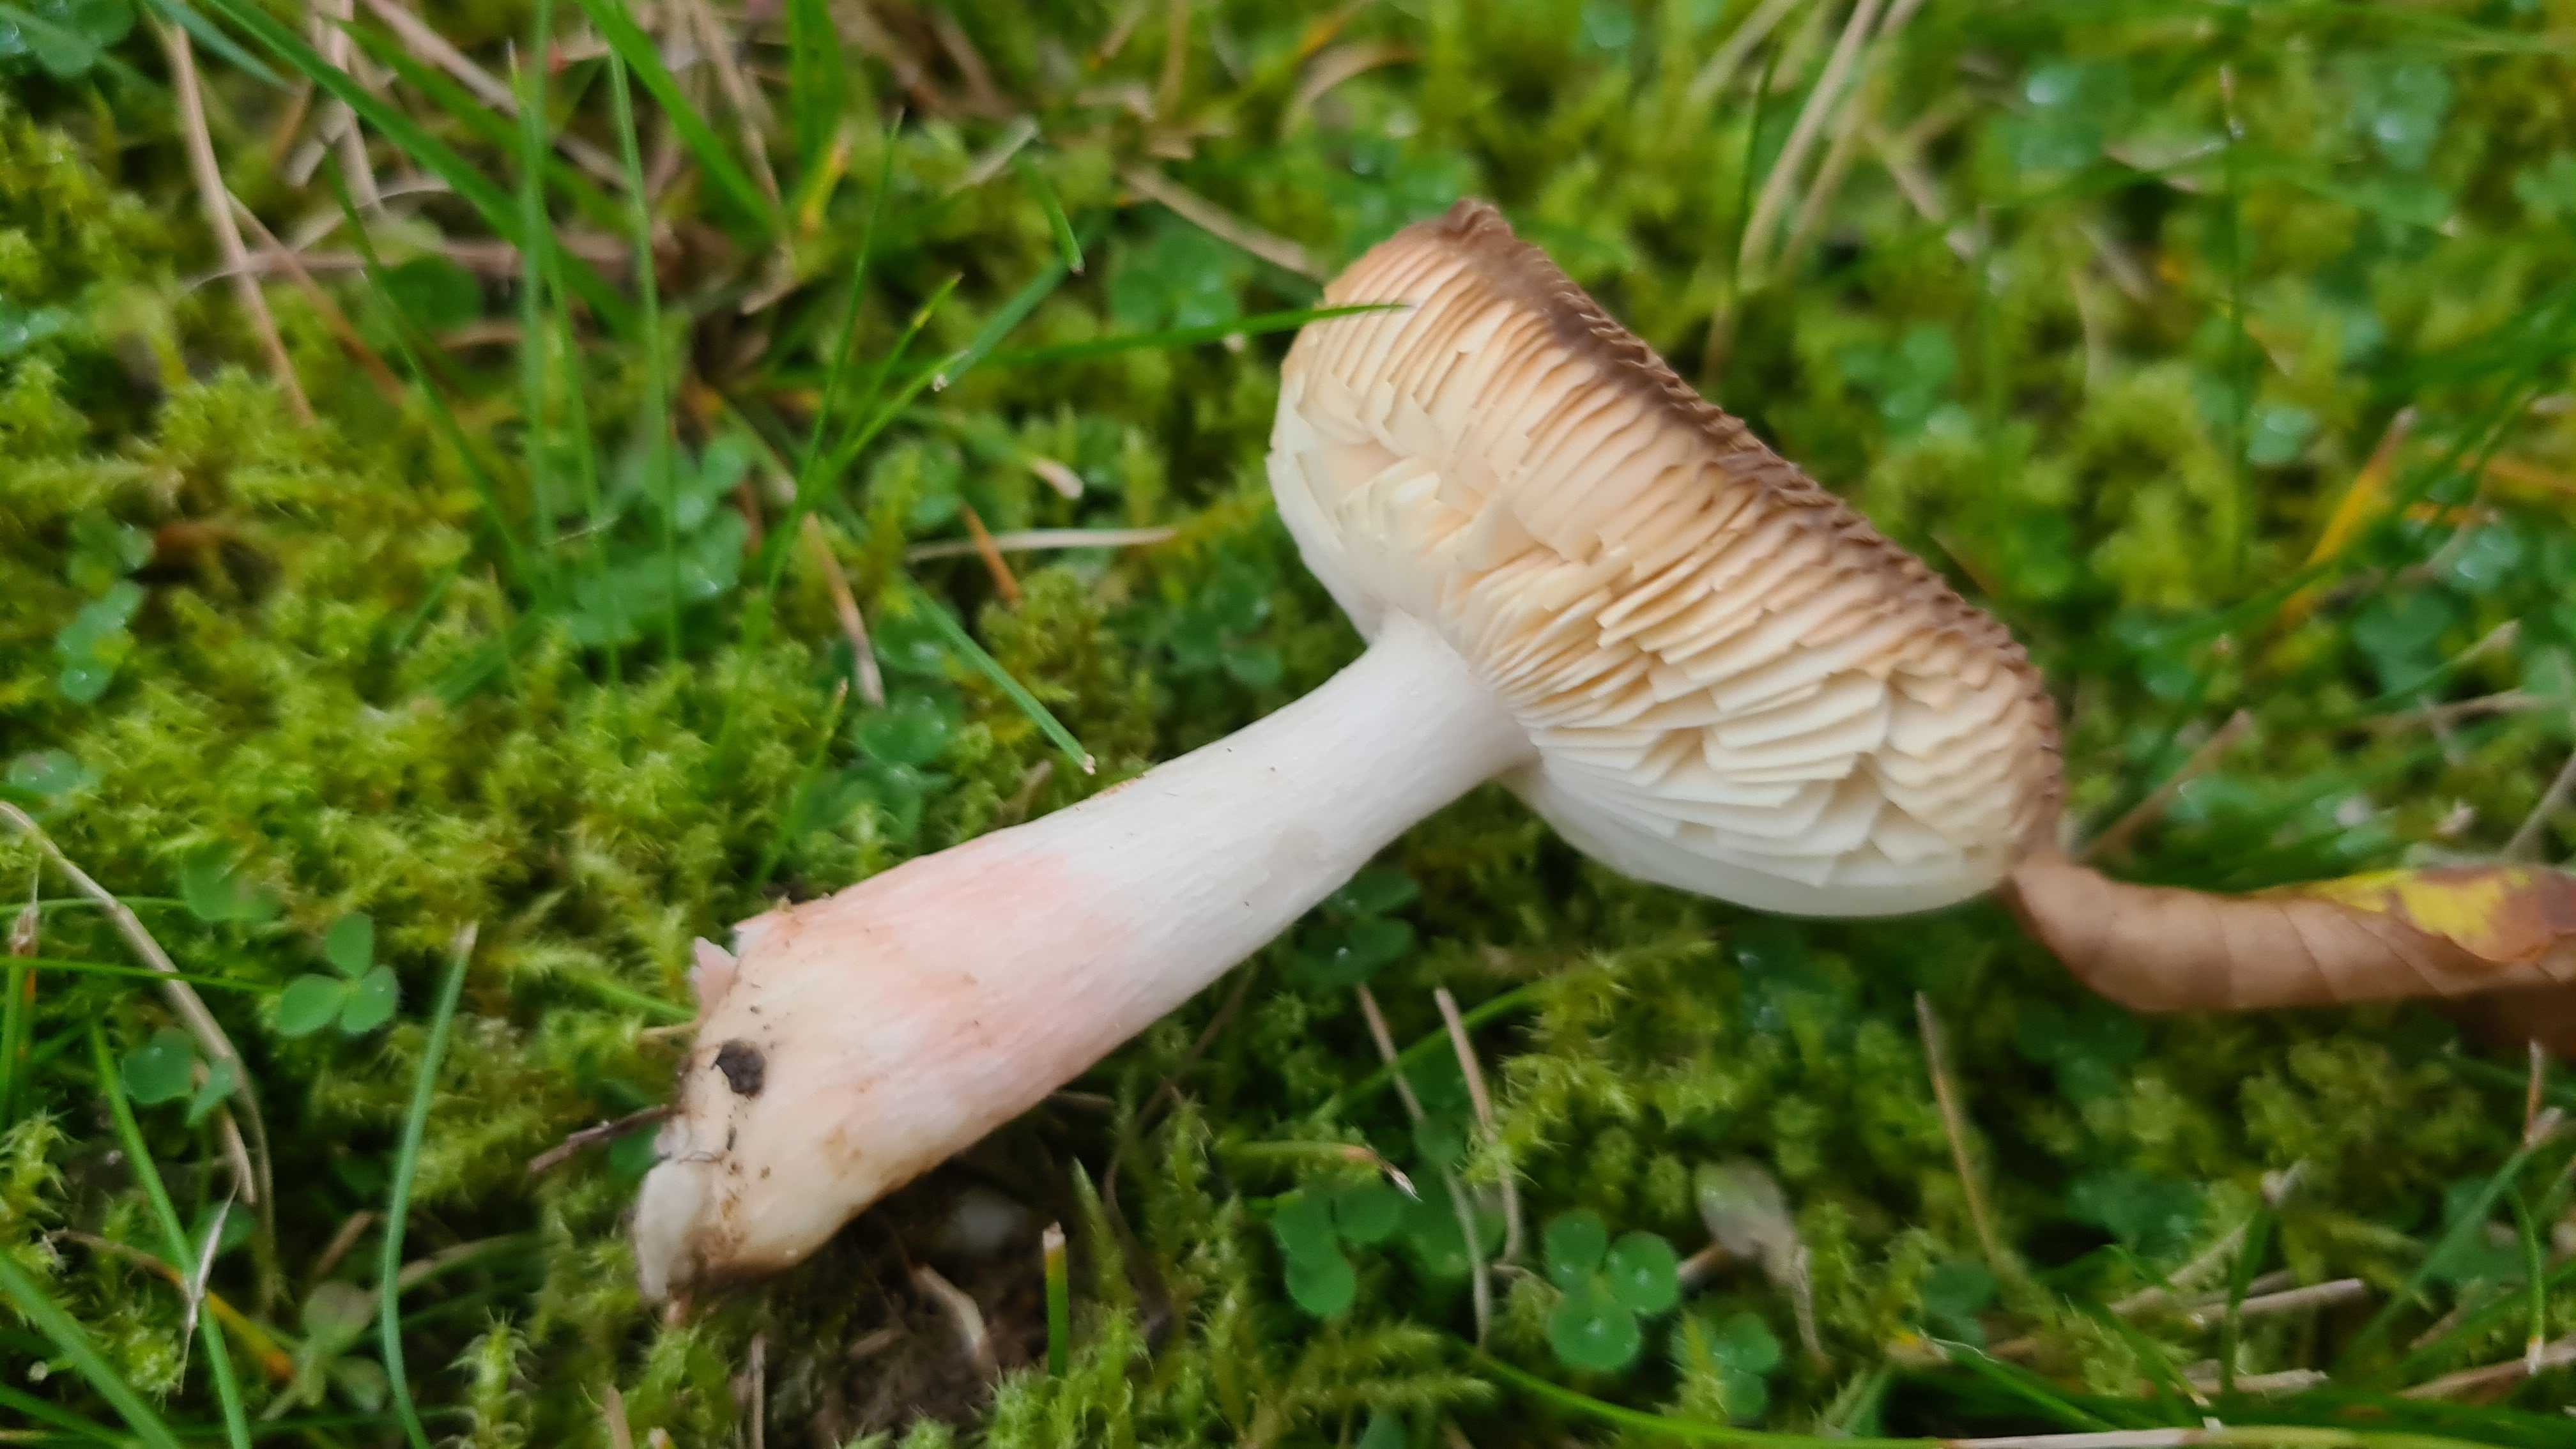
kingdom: Fungi
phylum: Basidiomycota
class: Agaricomycetes
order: Russulales
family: Russulaceae
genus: Russula
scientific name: Russula
